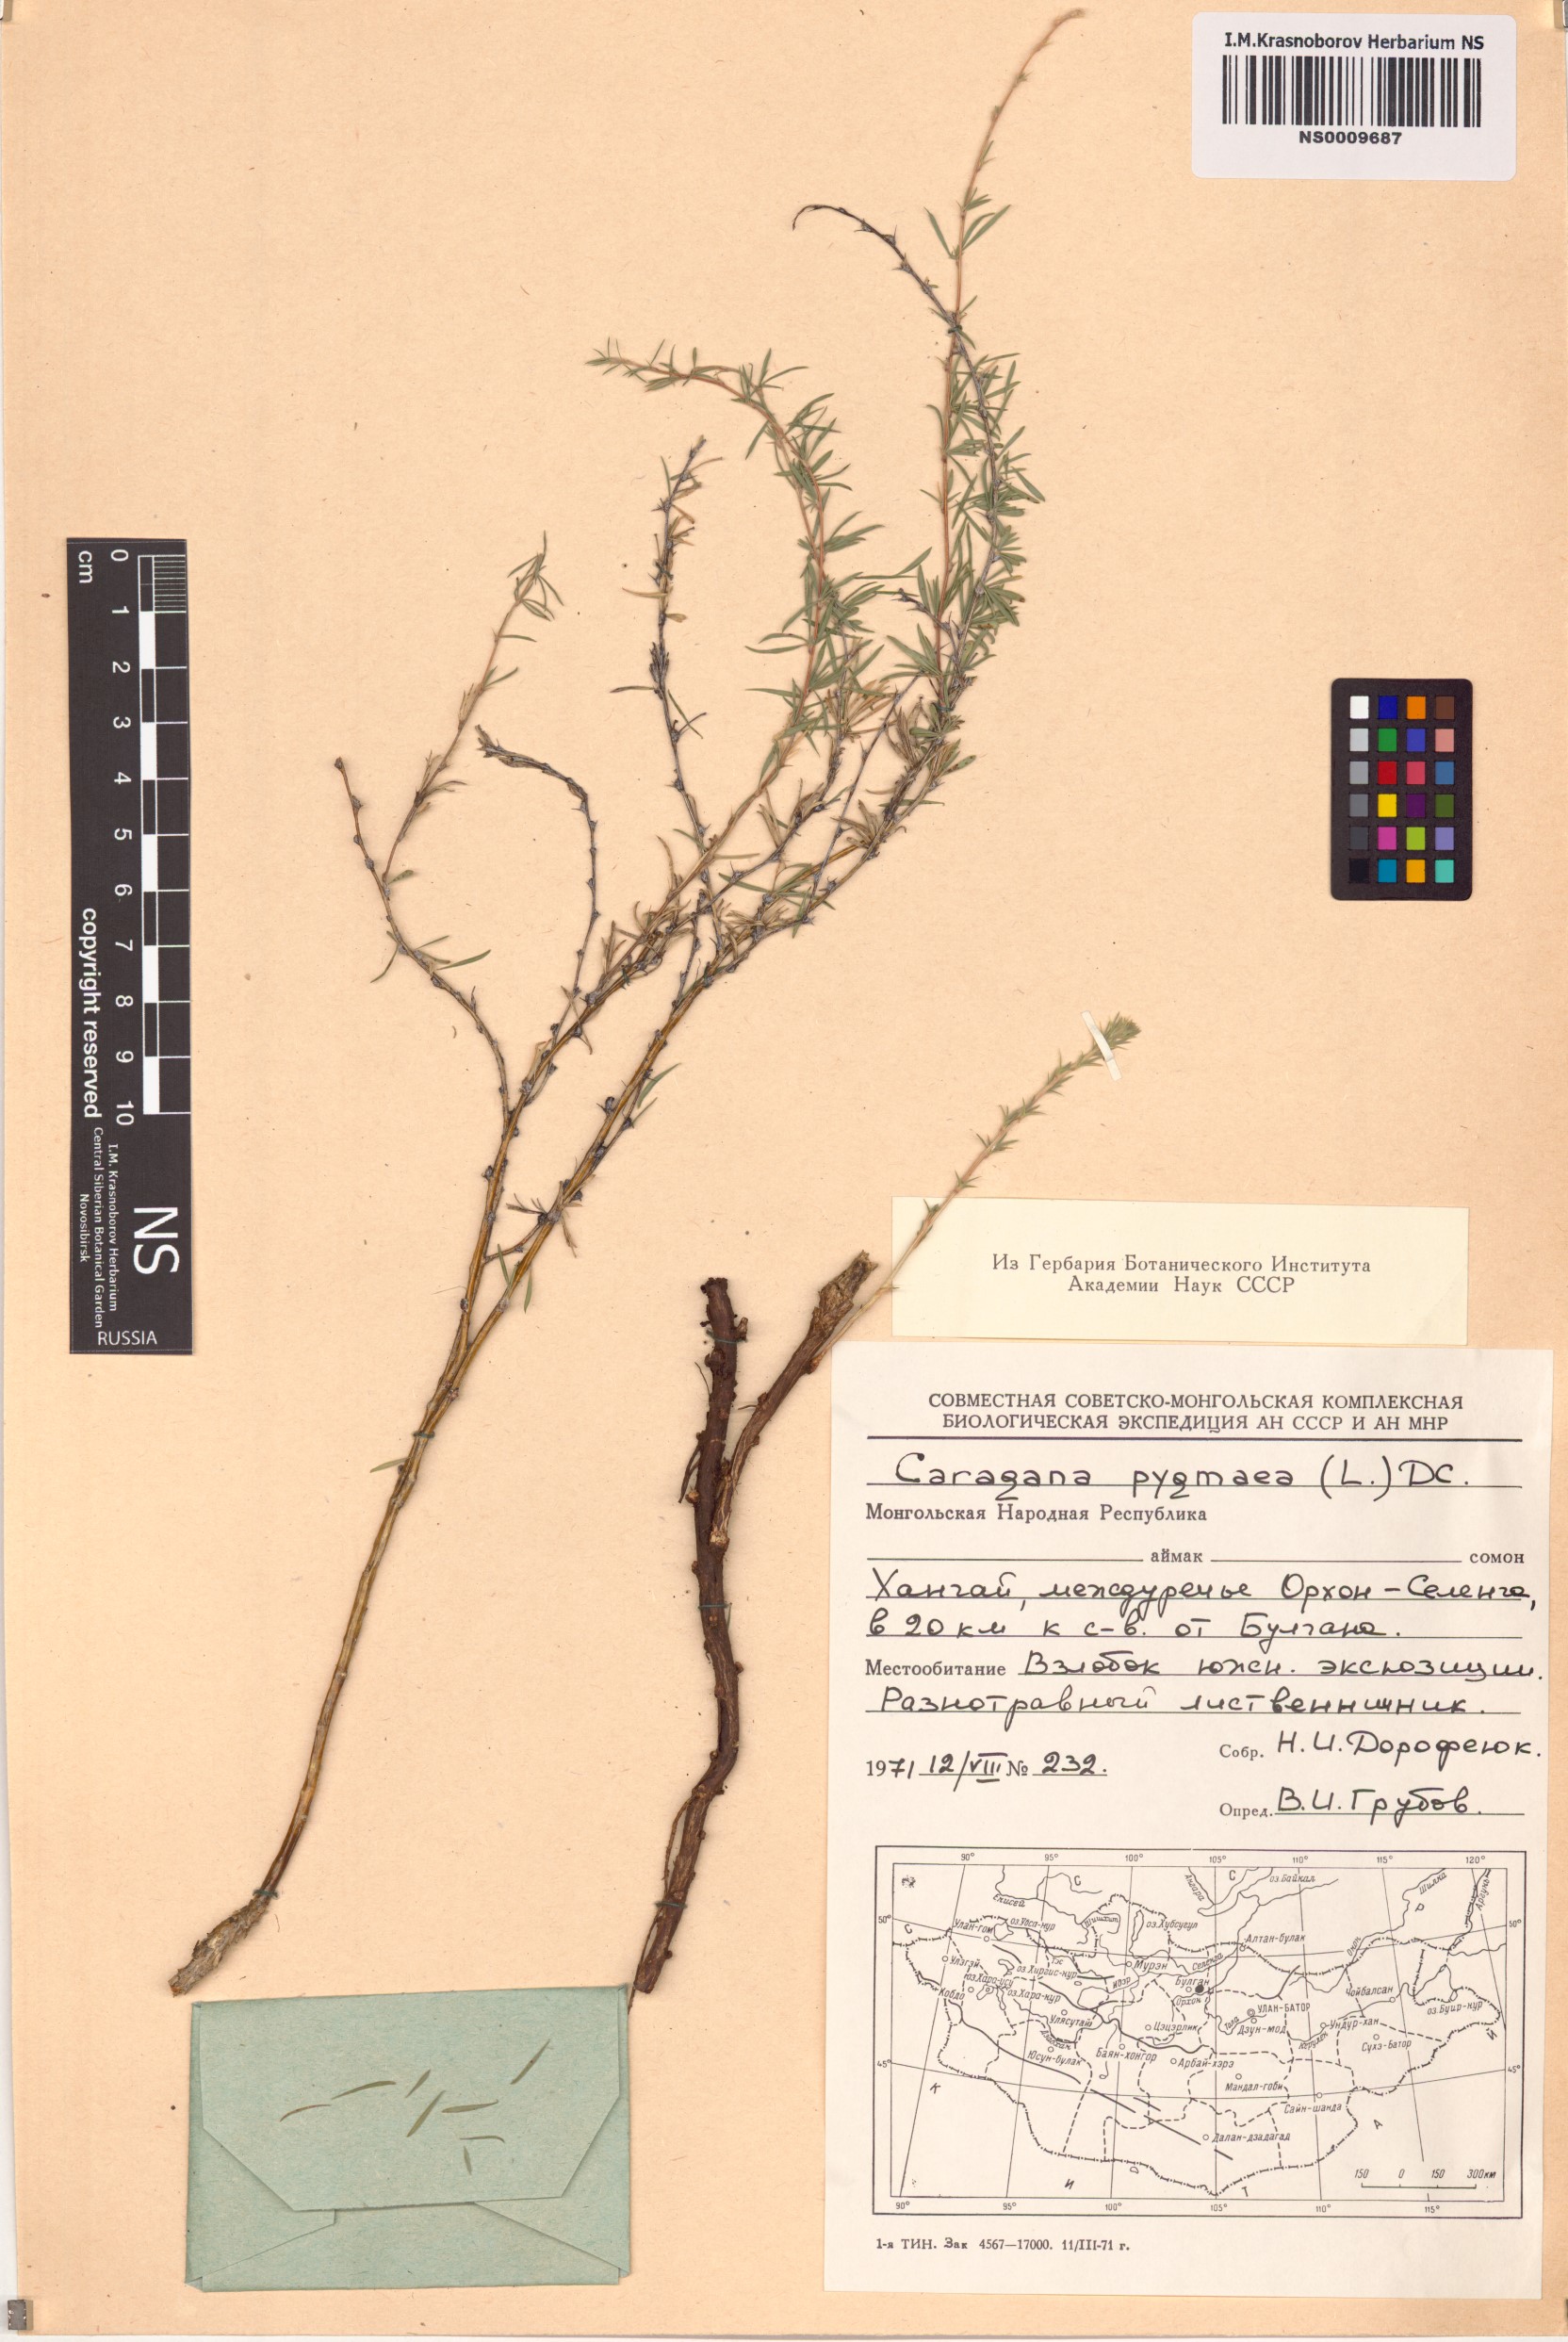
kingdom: Plantae
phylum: Tracheophyta
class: Magnoliopsida
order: Fabales
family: Fabaceae
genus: Caragana
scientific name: Caragana pygmaea
